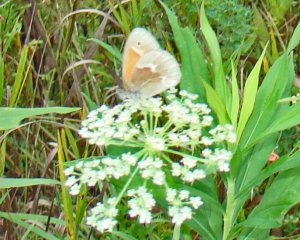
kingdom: Animalia
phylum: Arthropoda
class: Insecta
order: Lepidoptera
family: Nymphalidae
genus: Coenonympha
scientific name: Coenonympha tullia
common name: Large Heath
